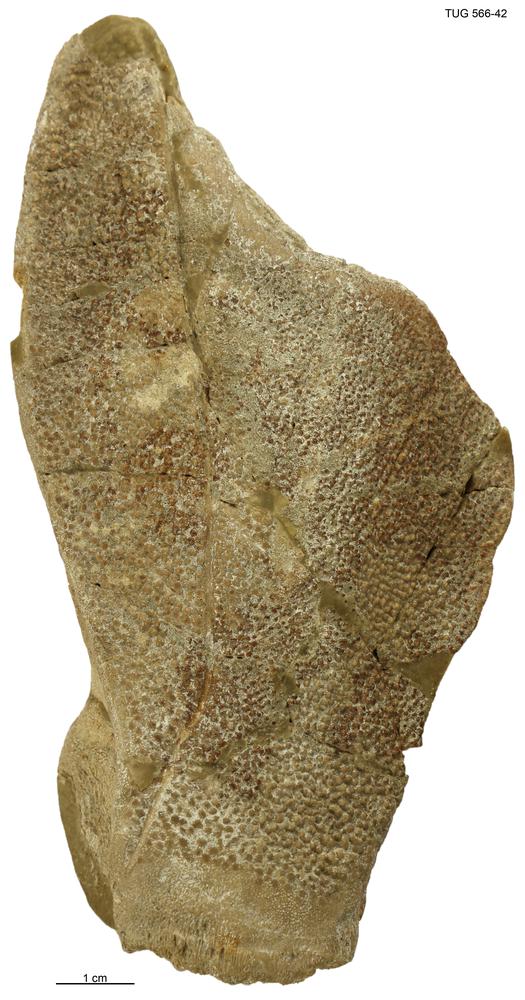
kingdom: Animalia
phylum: Chordata
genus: Homosteus
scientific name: Homosteus sulcatus
